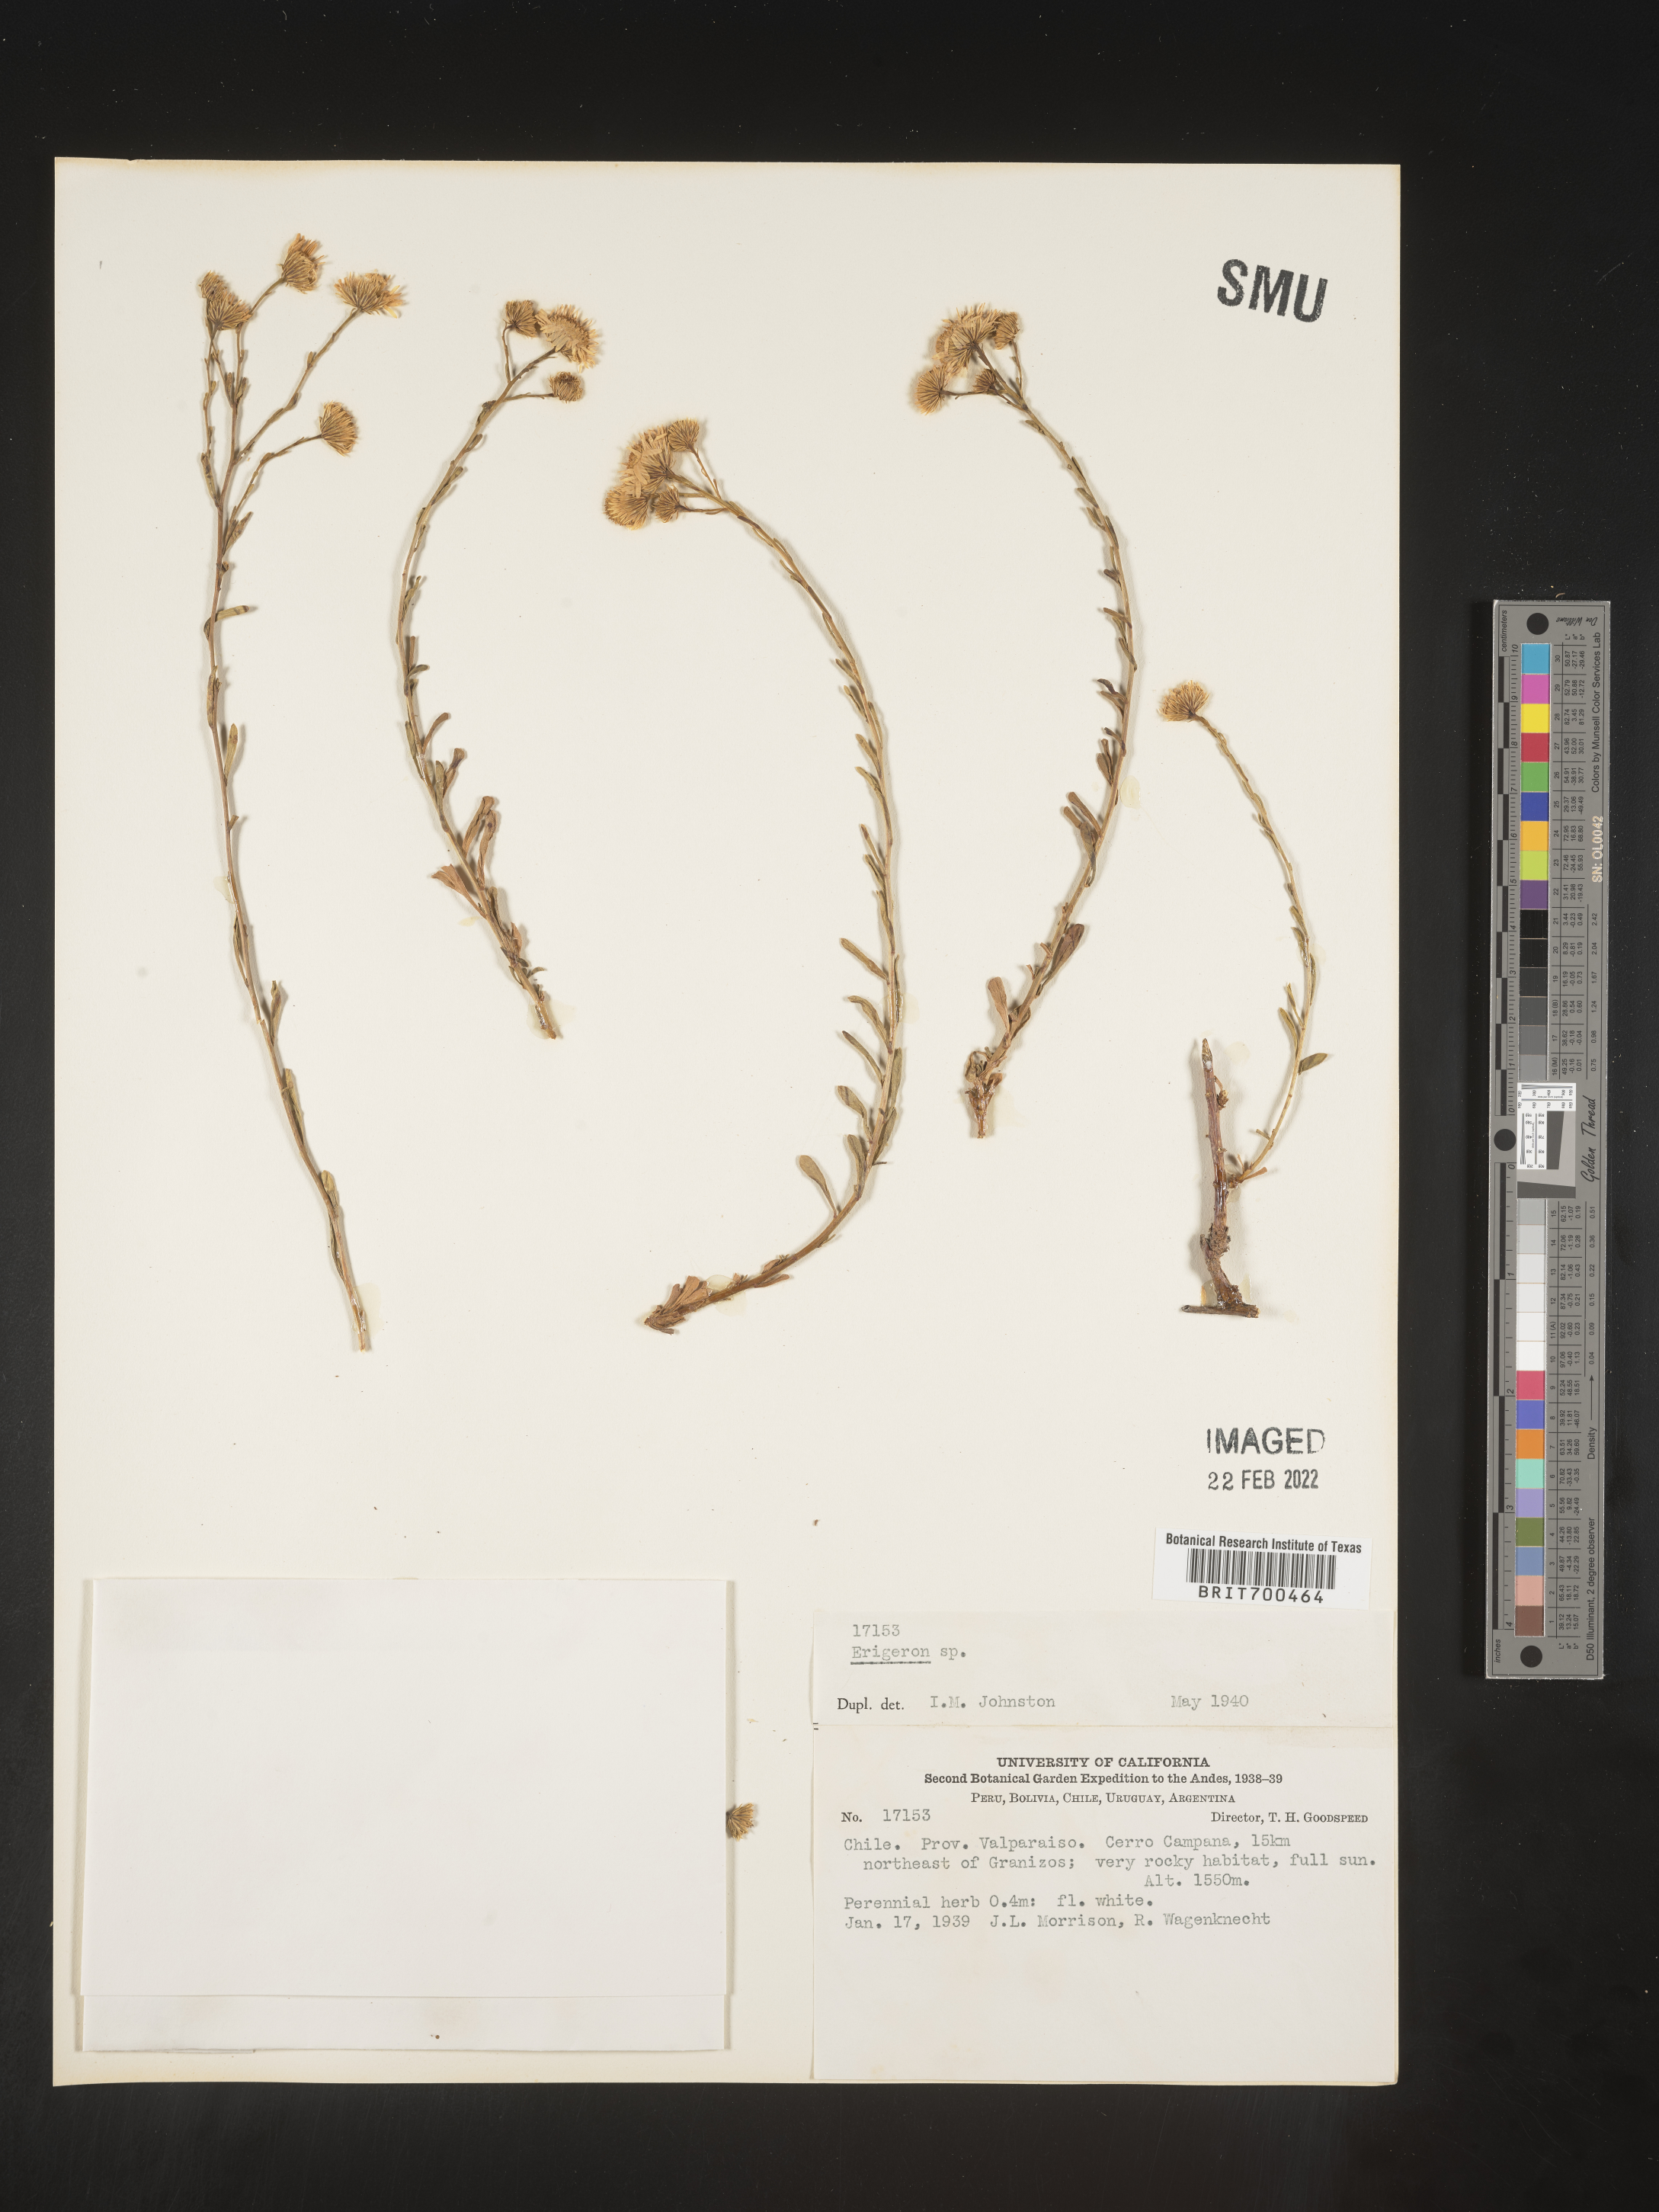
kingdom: Plantae
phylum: Tracheophyta
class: Magnoliopsida
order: Asterales
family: Asteraceae
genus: Erigeron
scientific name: Erigeron
